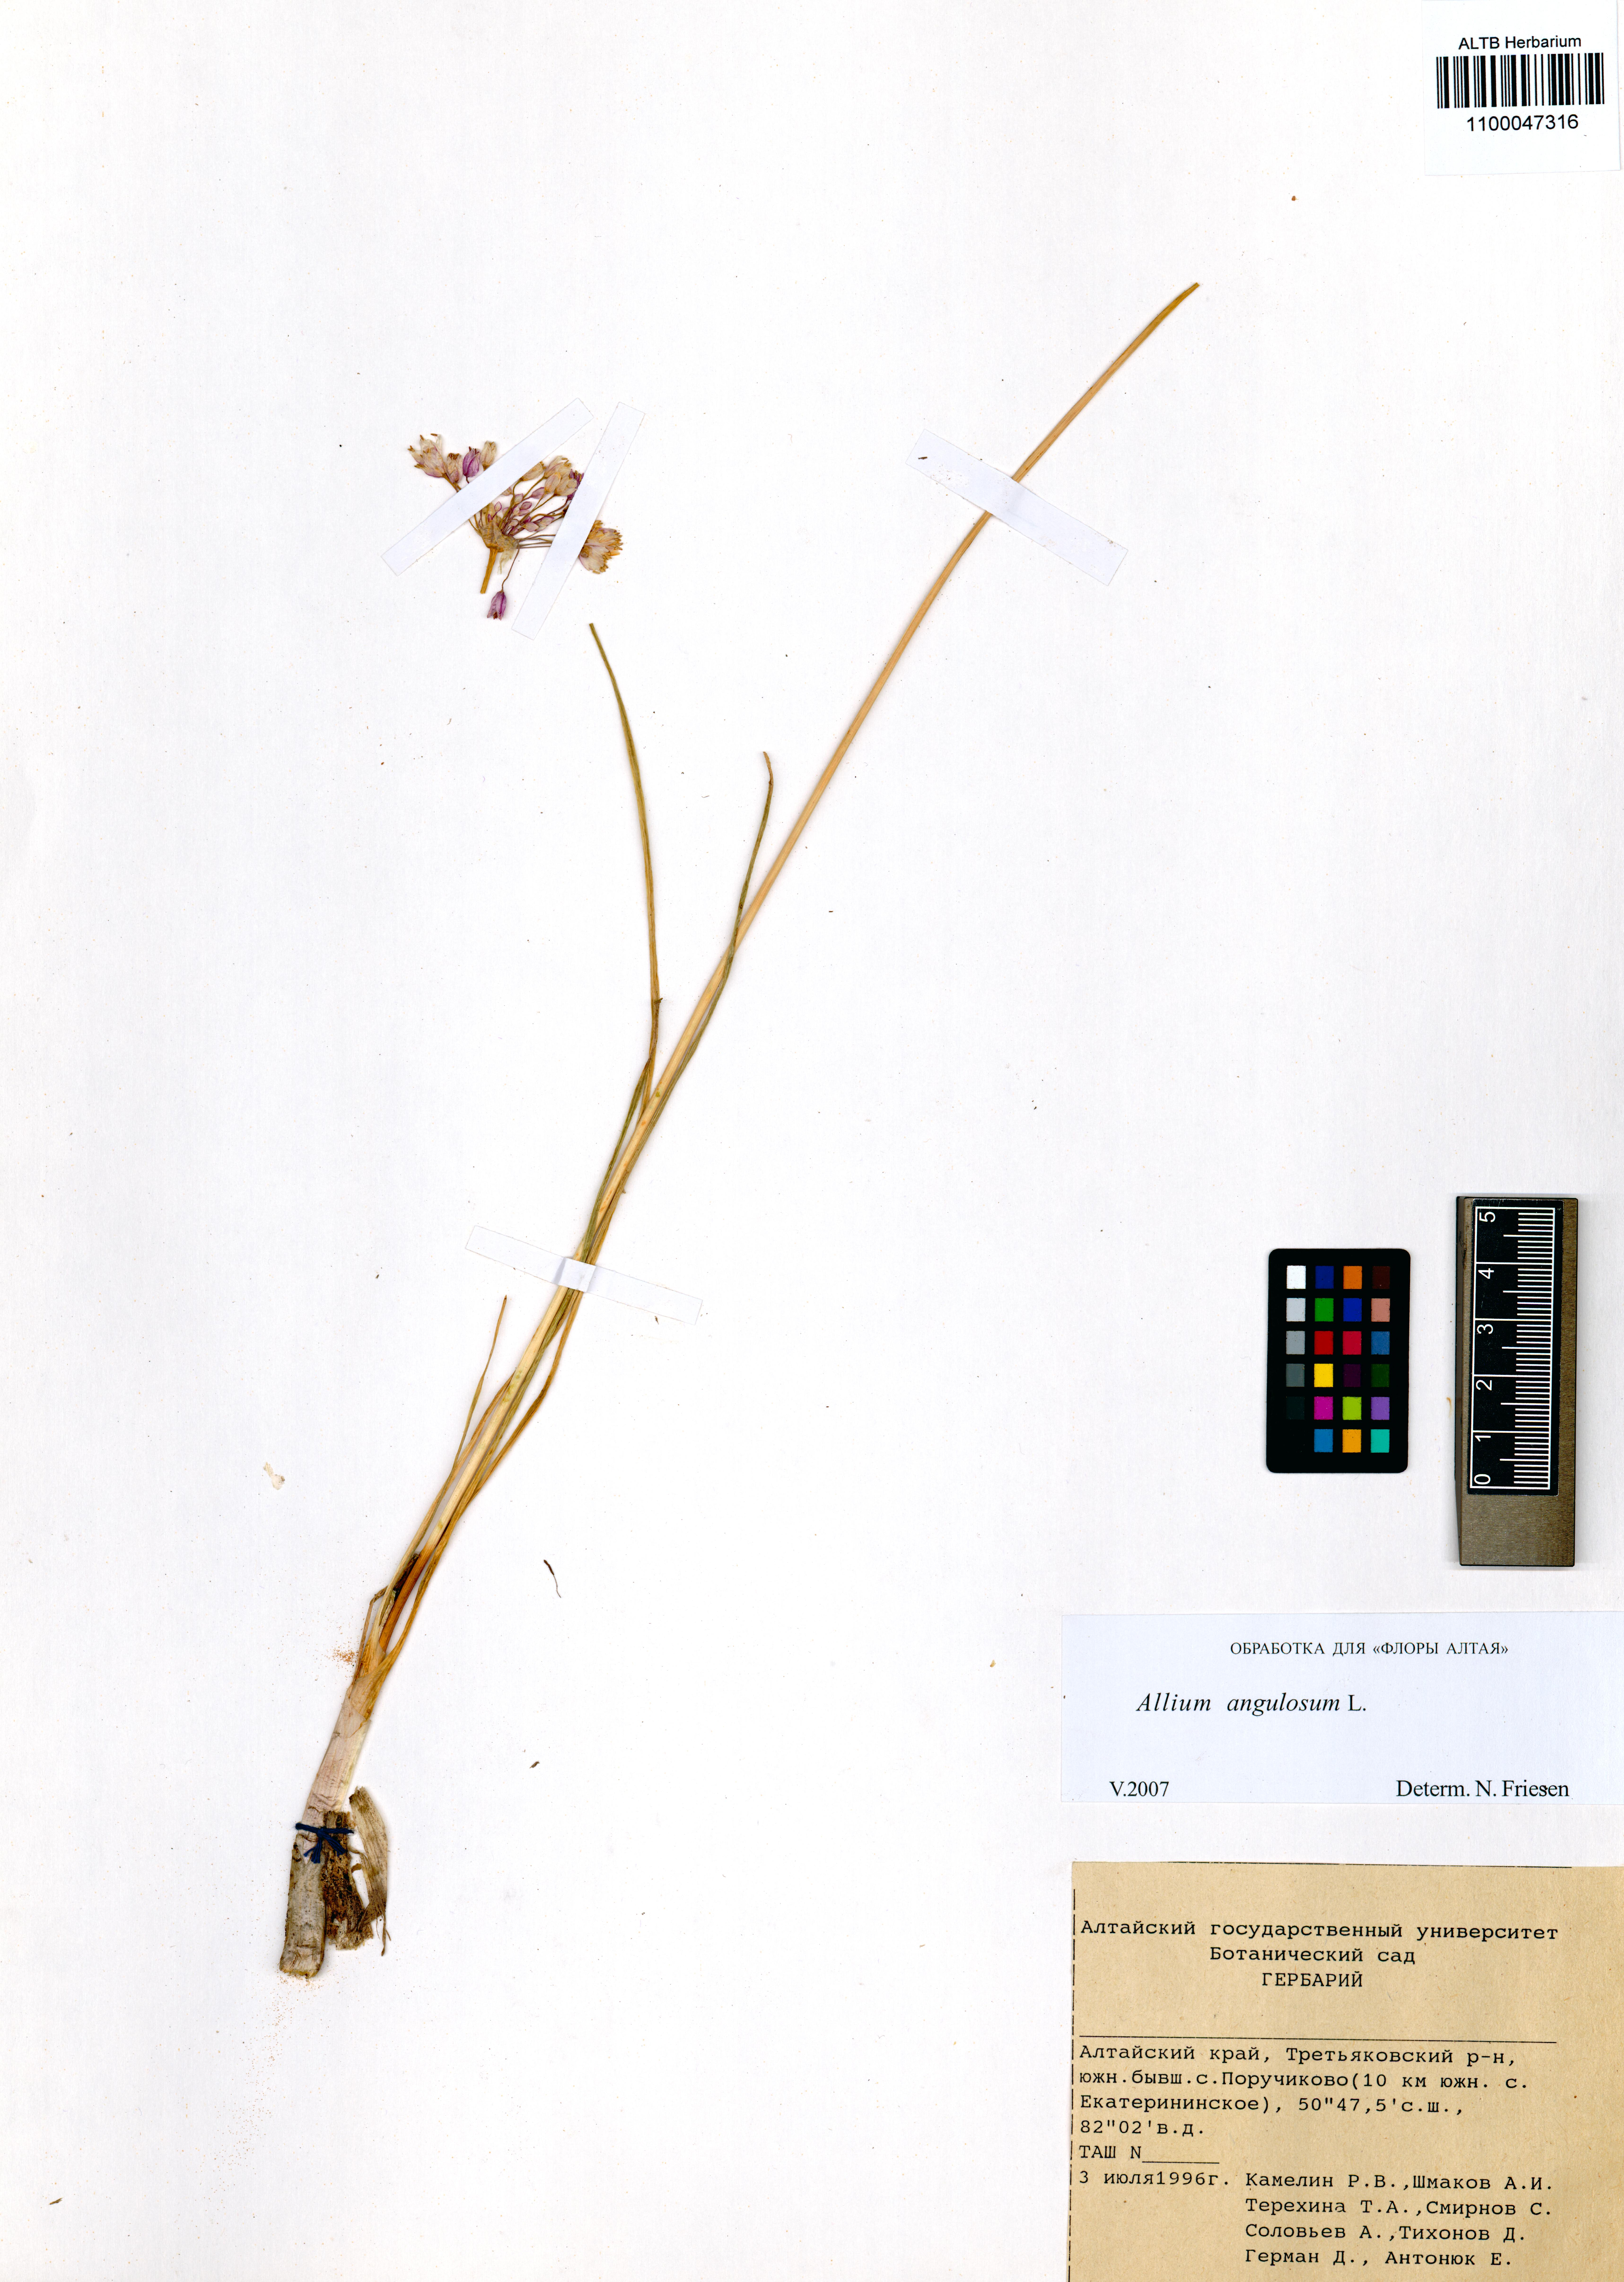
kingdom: Plantae
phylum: Tracheophyta
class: Liliopsida
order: Asparagales
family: Amaryllidaceae
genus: Allium
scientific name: Allium angulosum
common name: Mouse garlic
